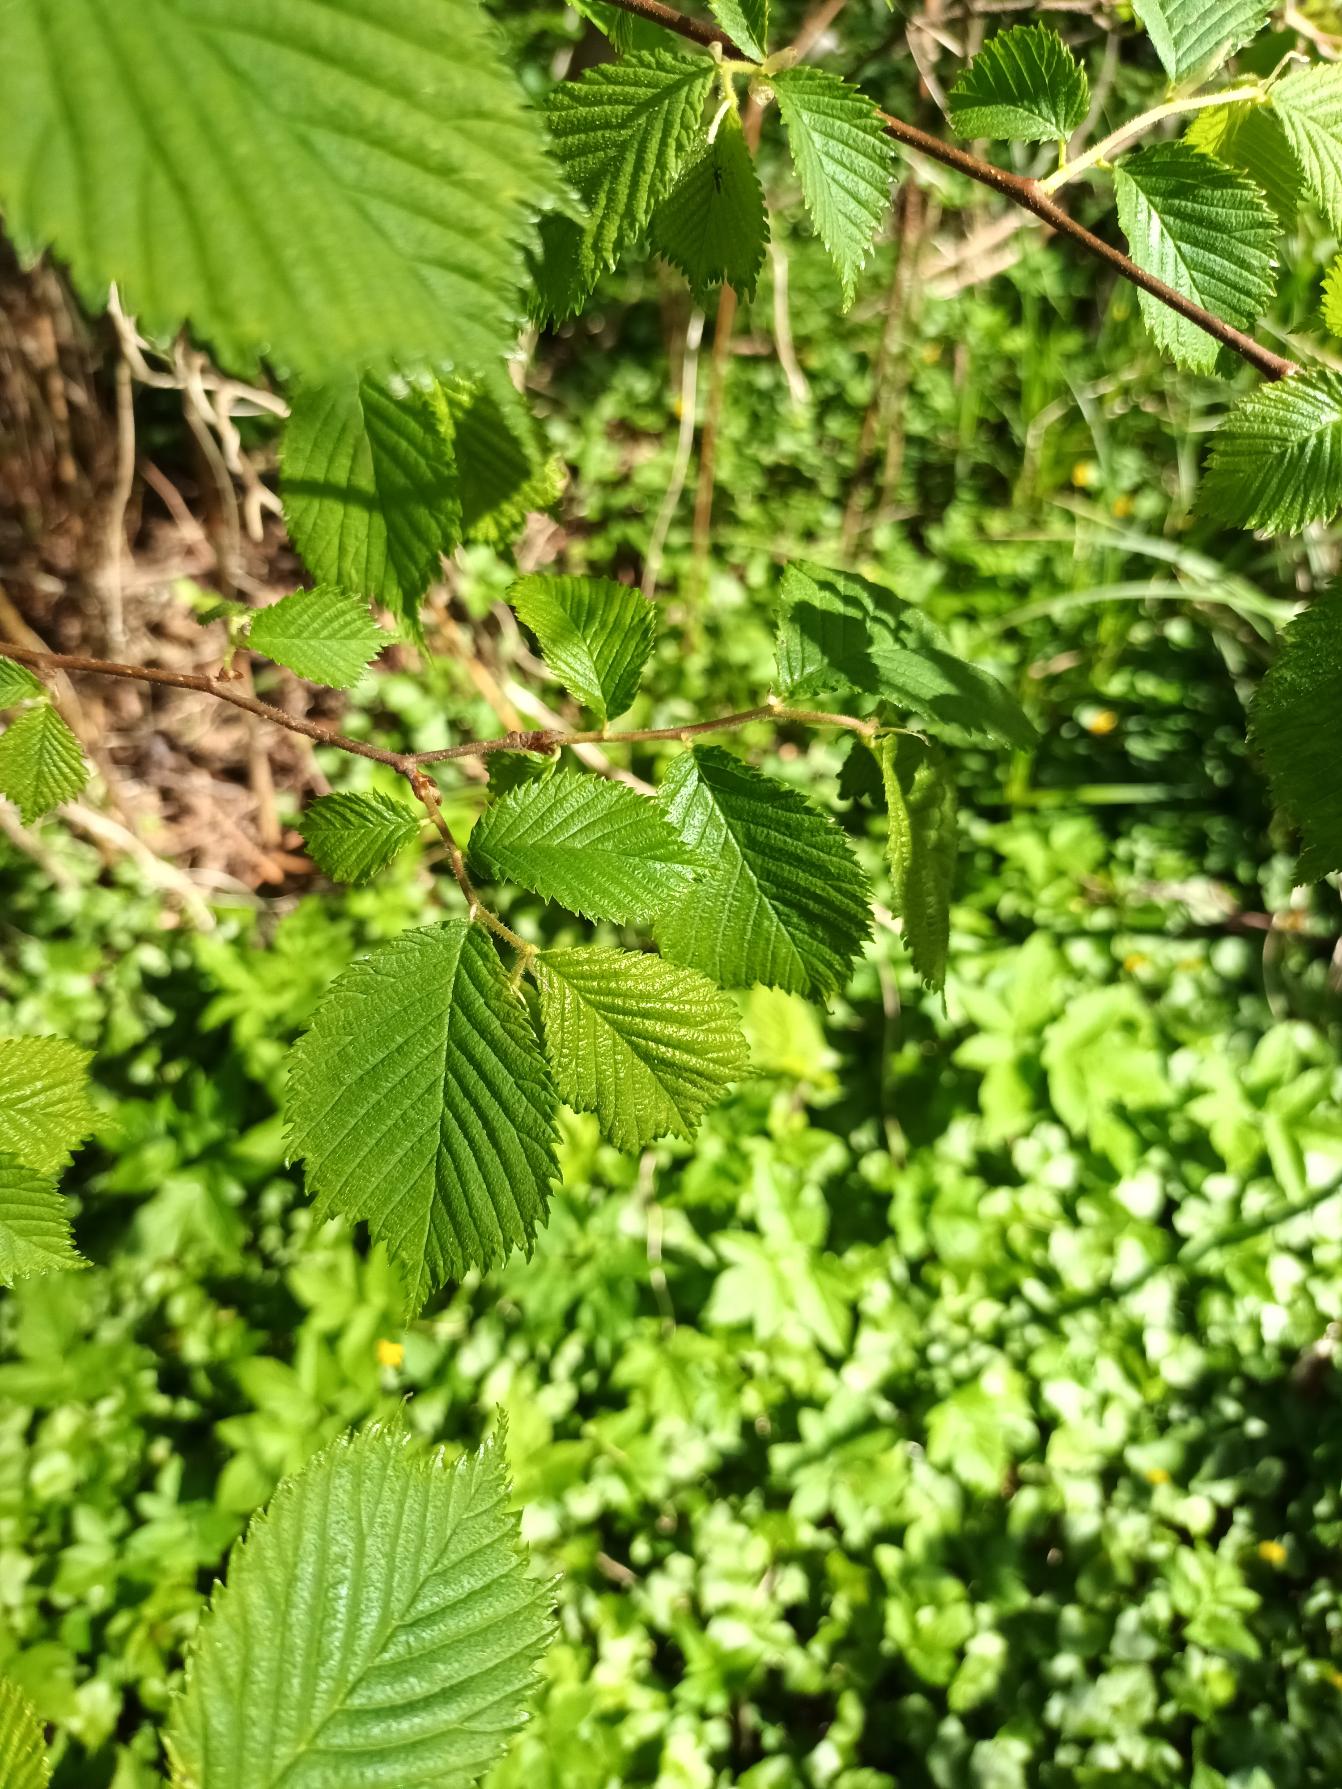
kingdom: Plantae
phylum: Tracheophyta
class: Magnoliopsida
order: Rosales
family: Ulmaceae
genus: Ulmus
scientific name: Ulmus glabra
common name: Skov-elm/storbladet elm
